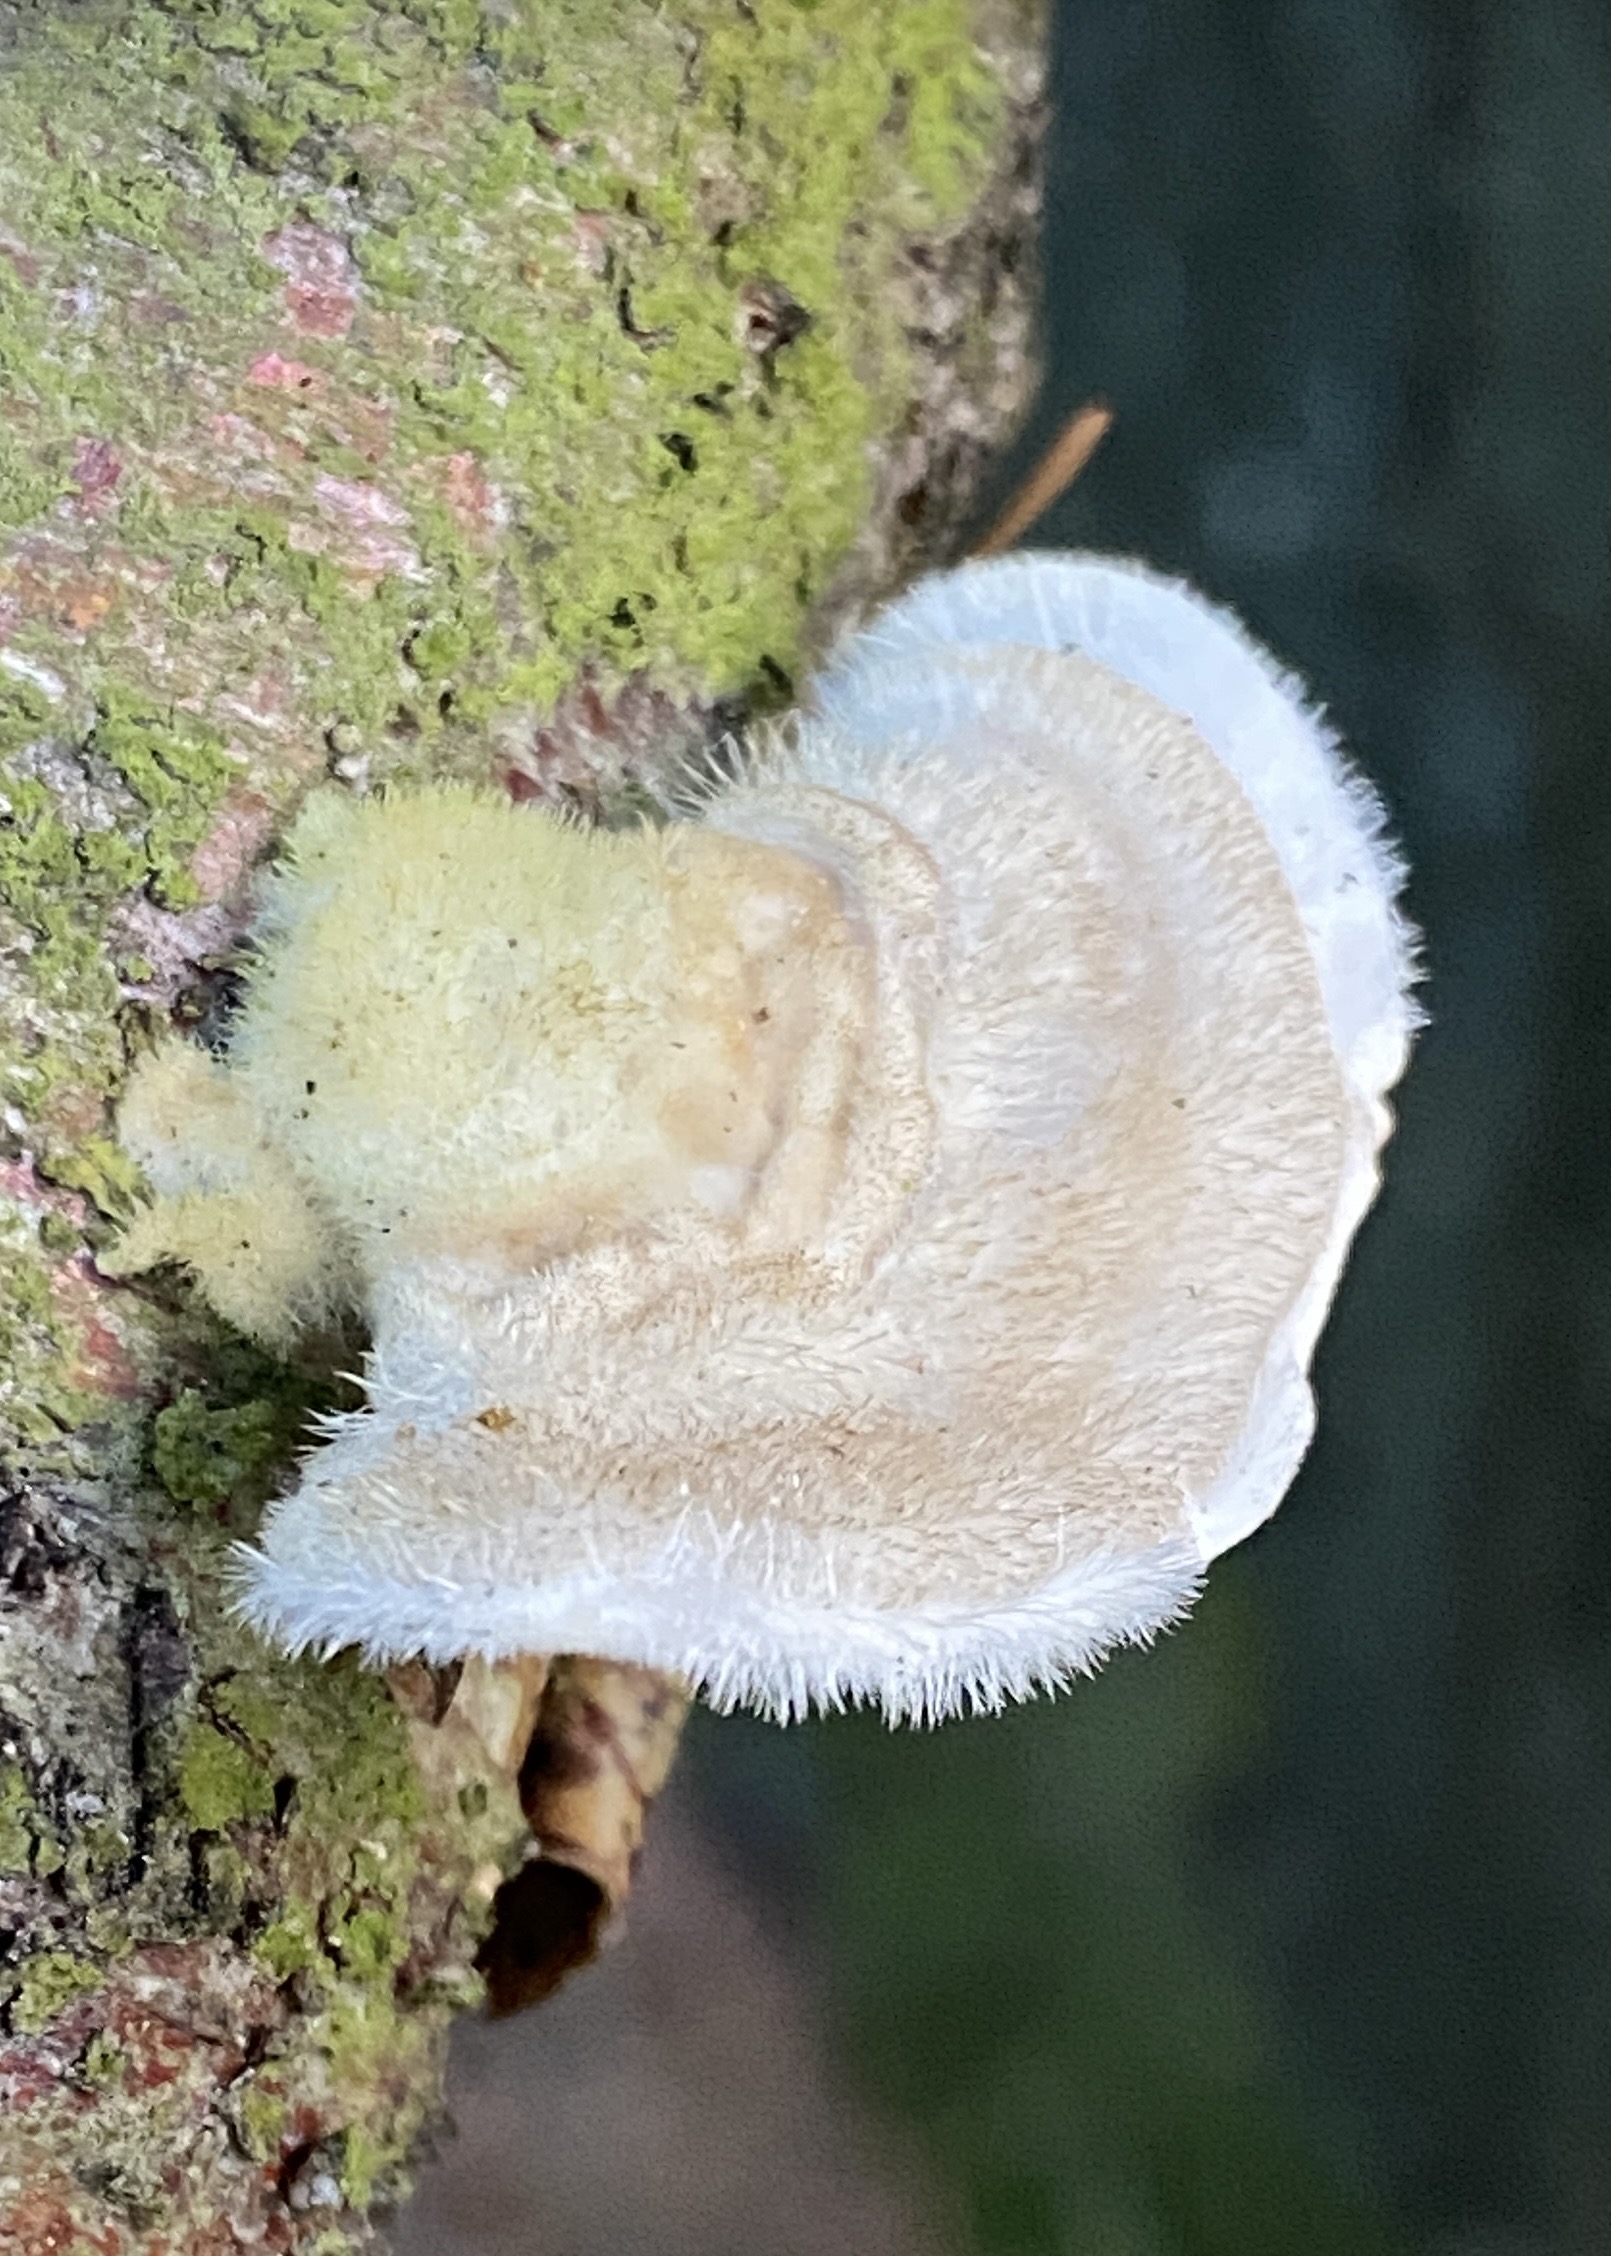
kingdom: Fungi
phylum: Basidiomycota
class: Agaricomycetes
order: Polyporales
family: Polyporaceae
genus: Trametes
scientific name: Trametes hirsuta
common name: håret læderporesvamp
